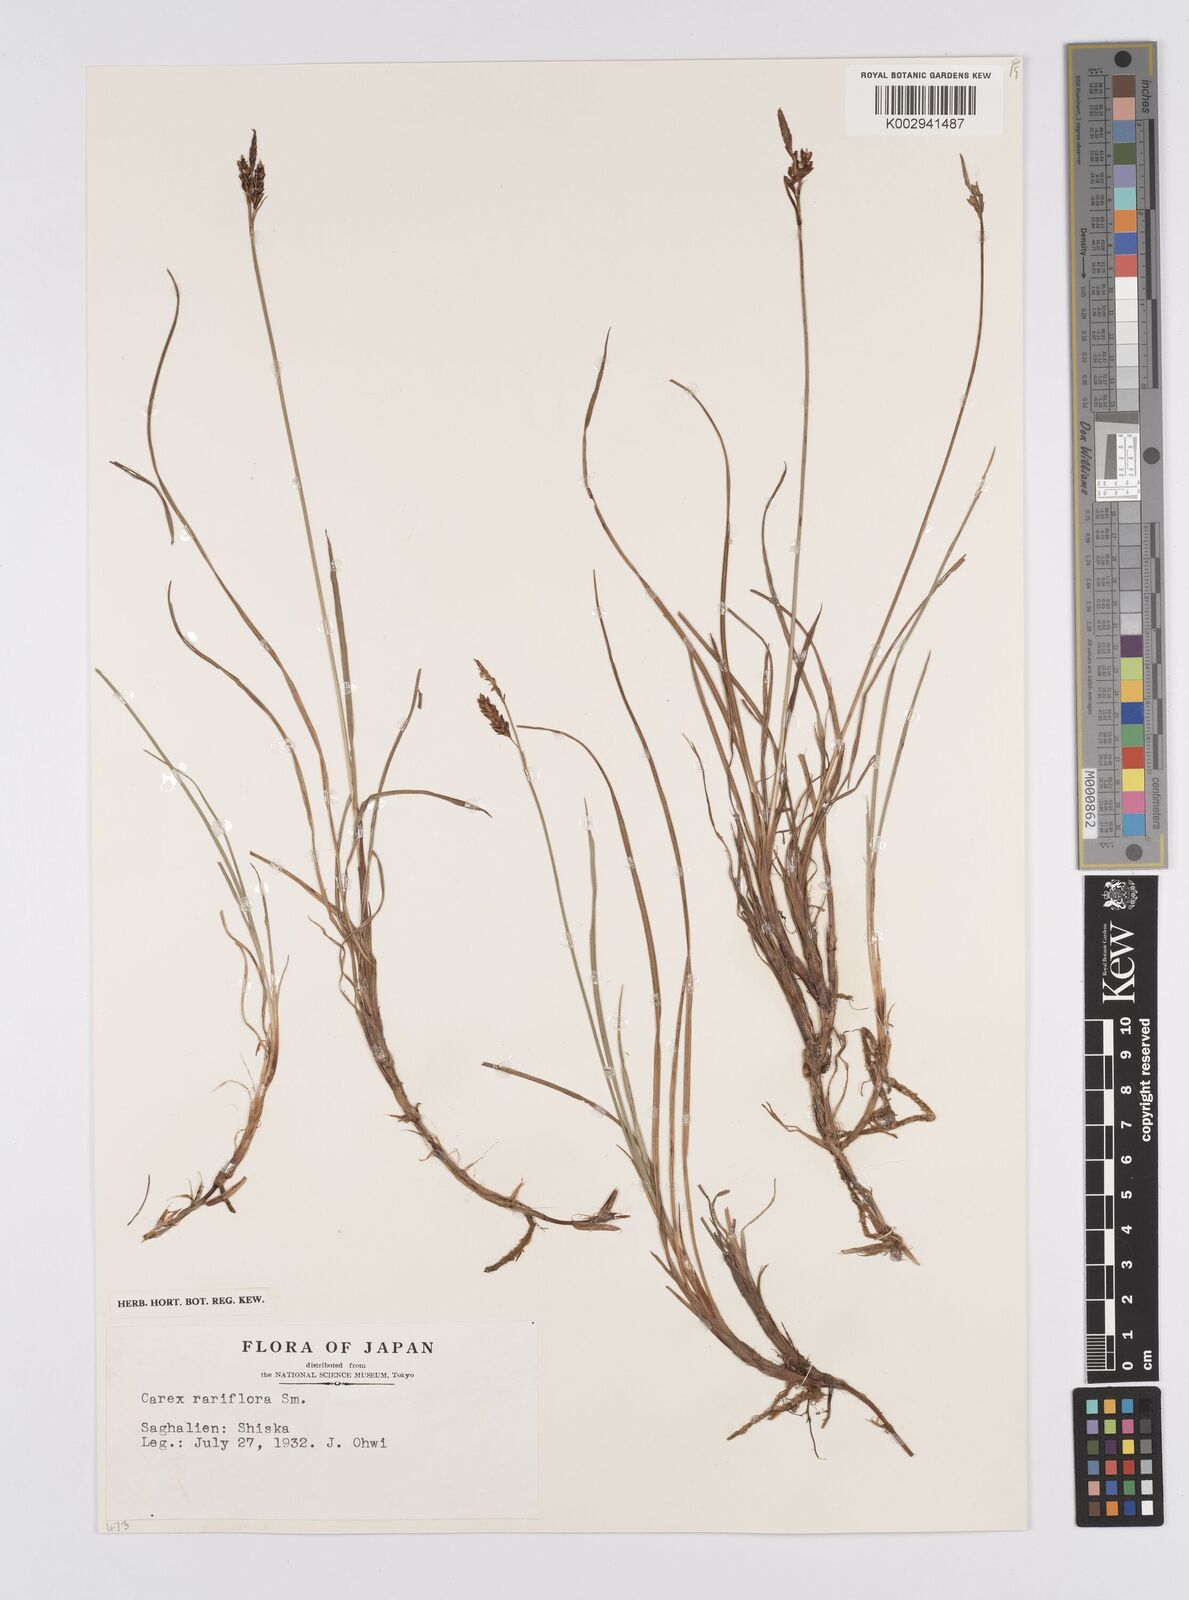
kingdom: Plantae
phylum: Tracheophyta
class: Liliopsida
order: Poales
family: Cyperaceae
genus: Carex
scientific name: Carex rariflora
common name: Loose-flowered alpine sedge
